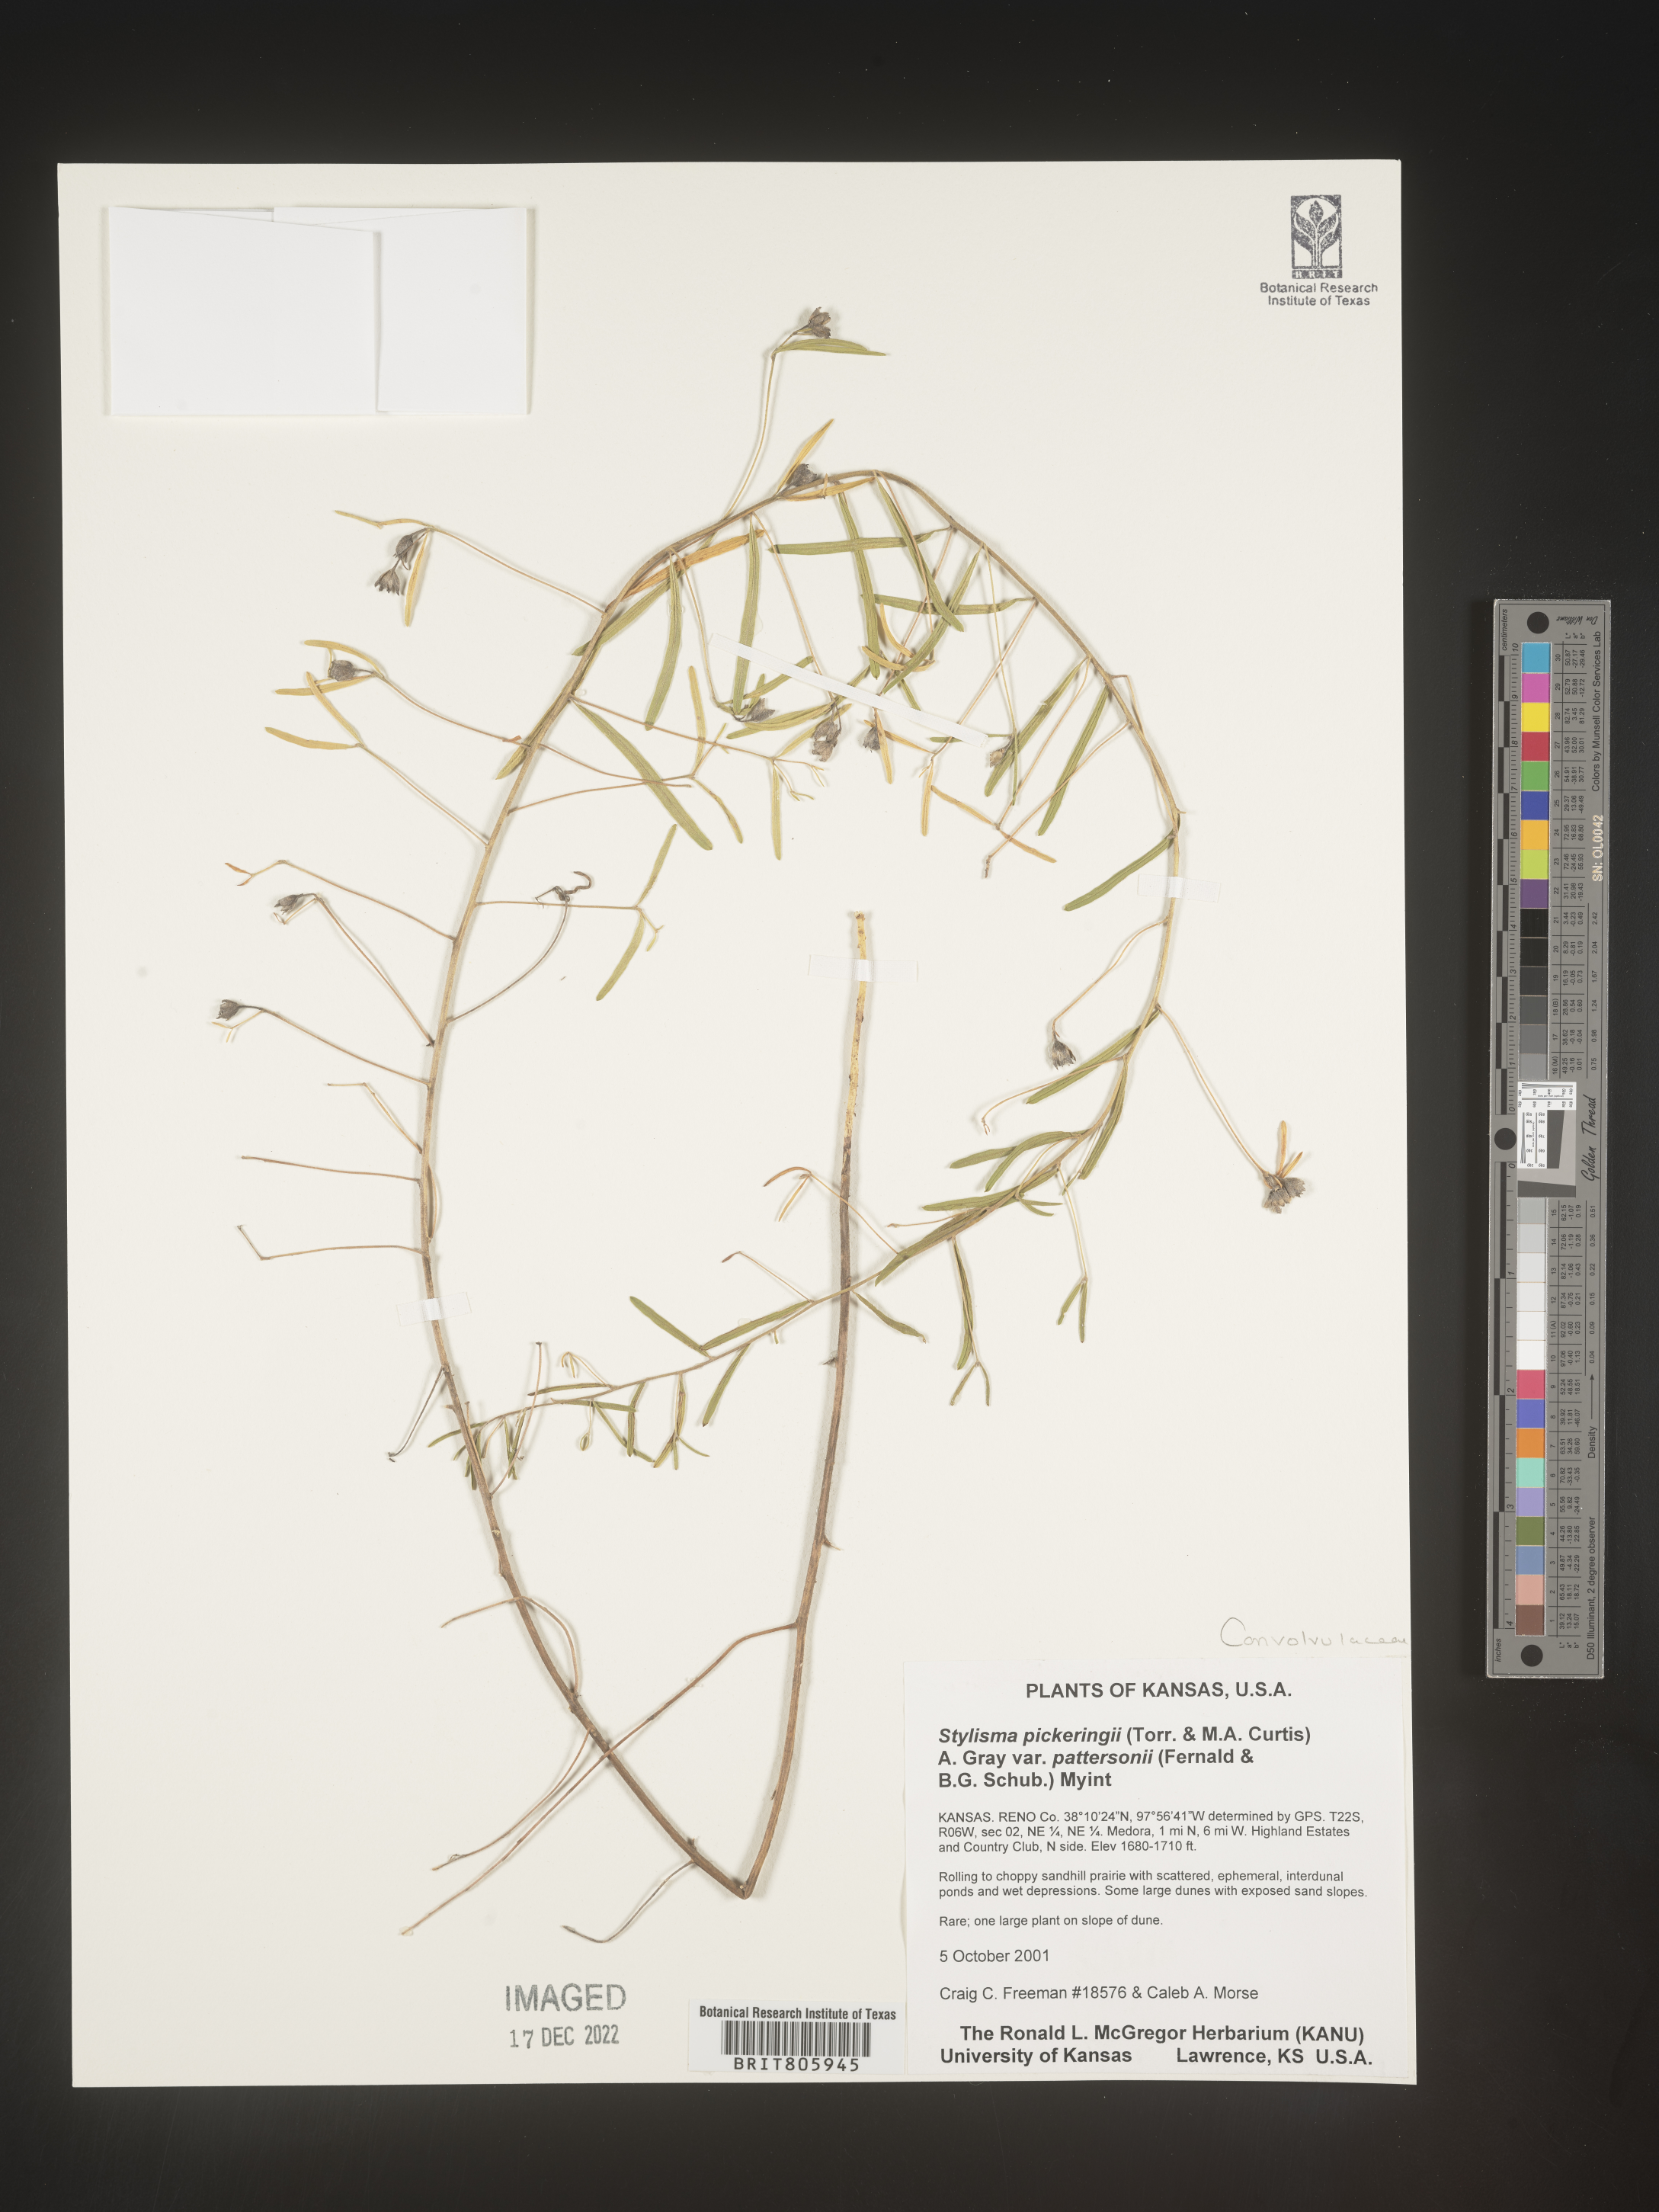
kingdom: Plantae
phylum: Tracheophyta
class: Magnoliopsida
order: Solanales
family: Convolvulaceae
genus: Stylisma
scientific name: Stylisma
